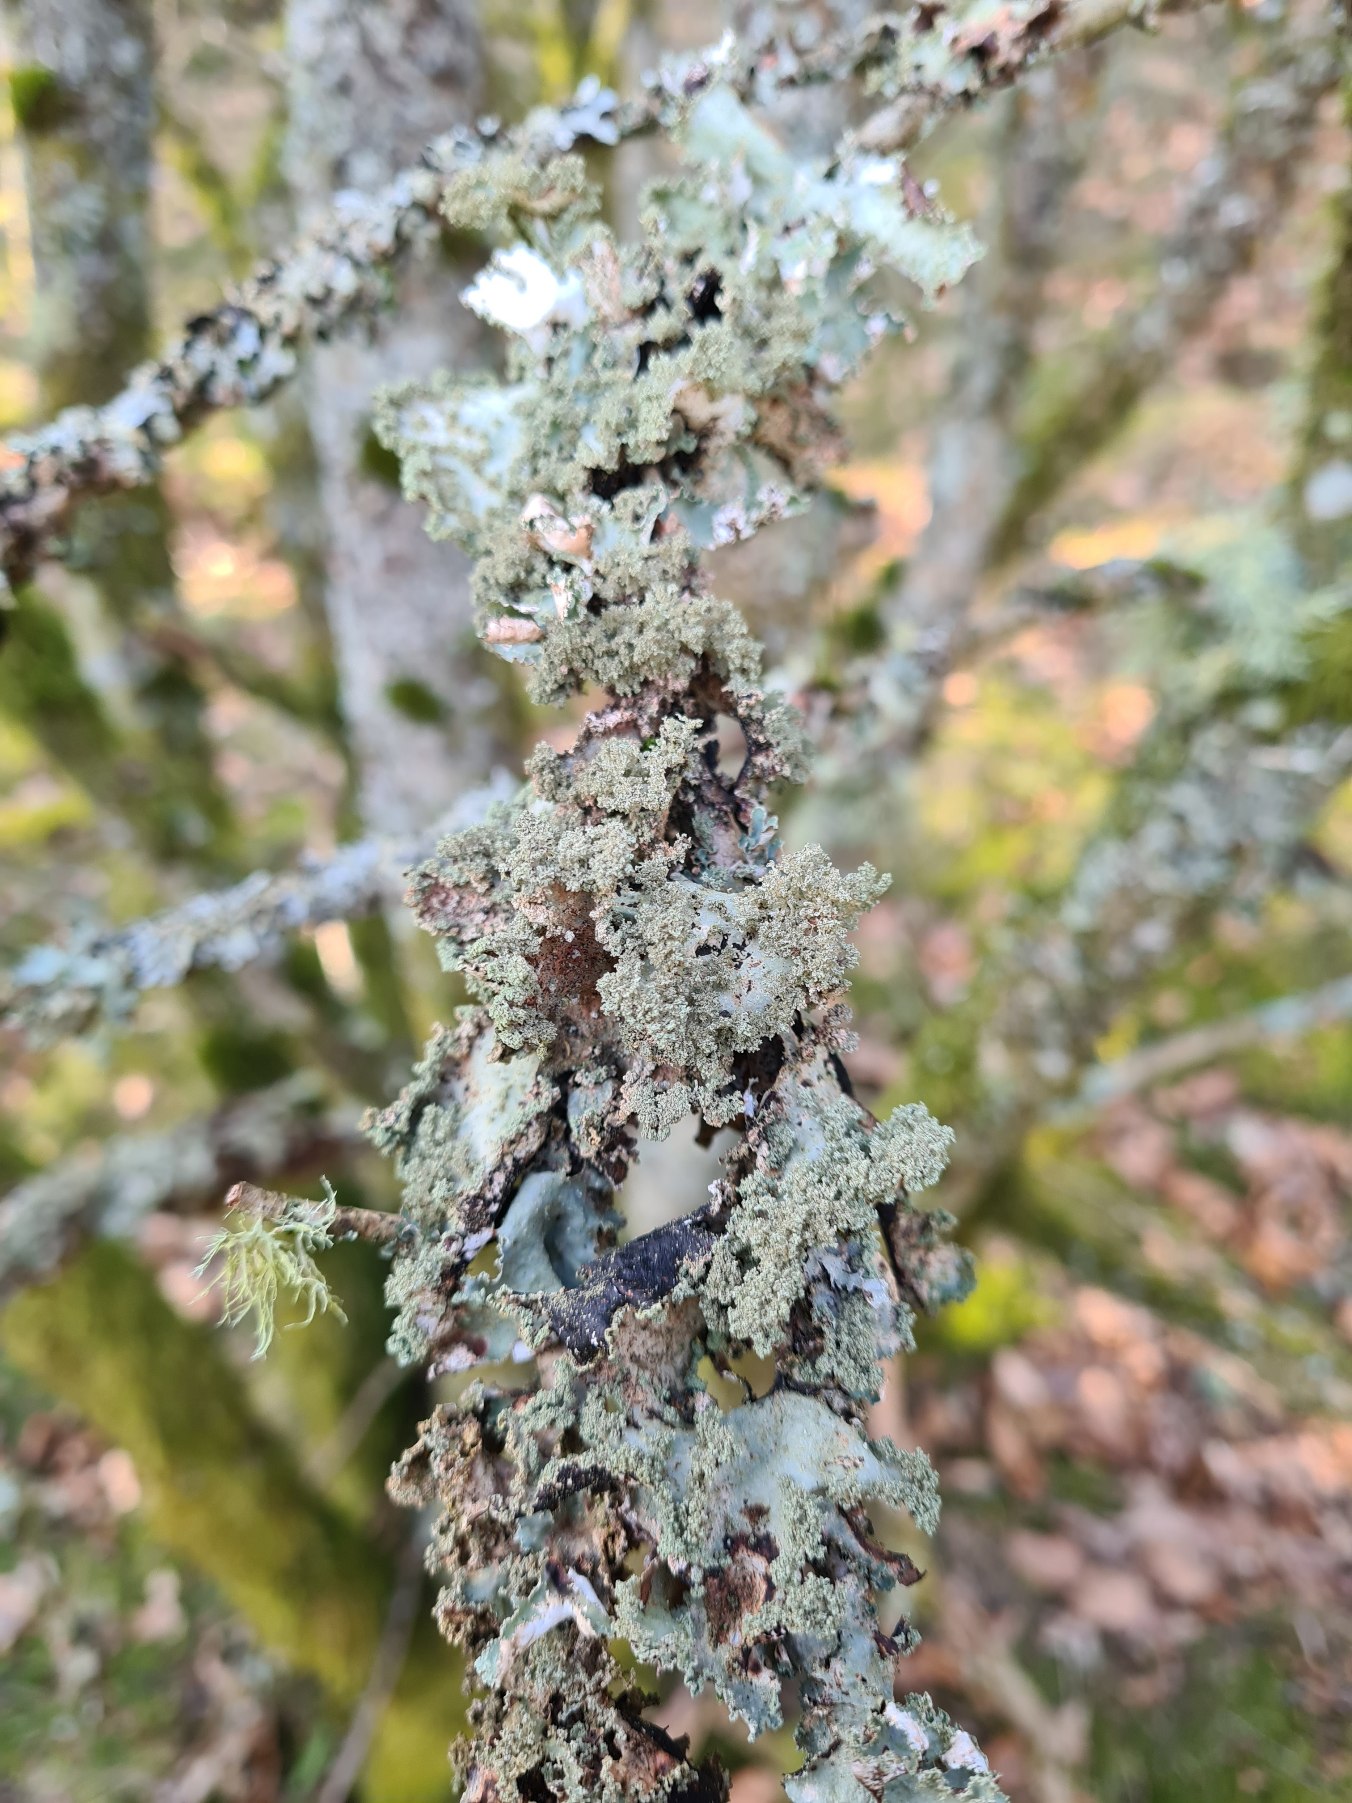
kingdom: Fungi
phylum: Ascomycota
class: Lecanoromycetes
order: Lecanorales
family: Parmeliaceae
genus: Platismatia
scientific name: Platismatia glauca
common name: Blågrå papirlav
